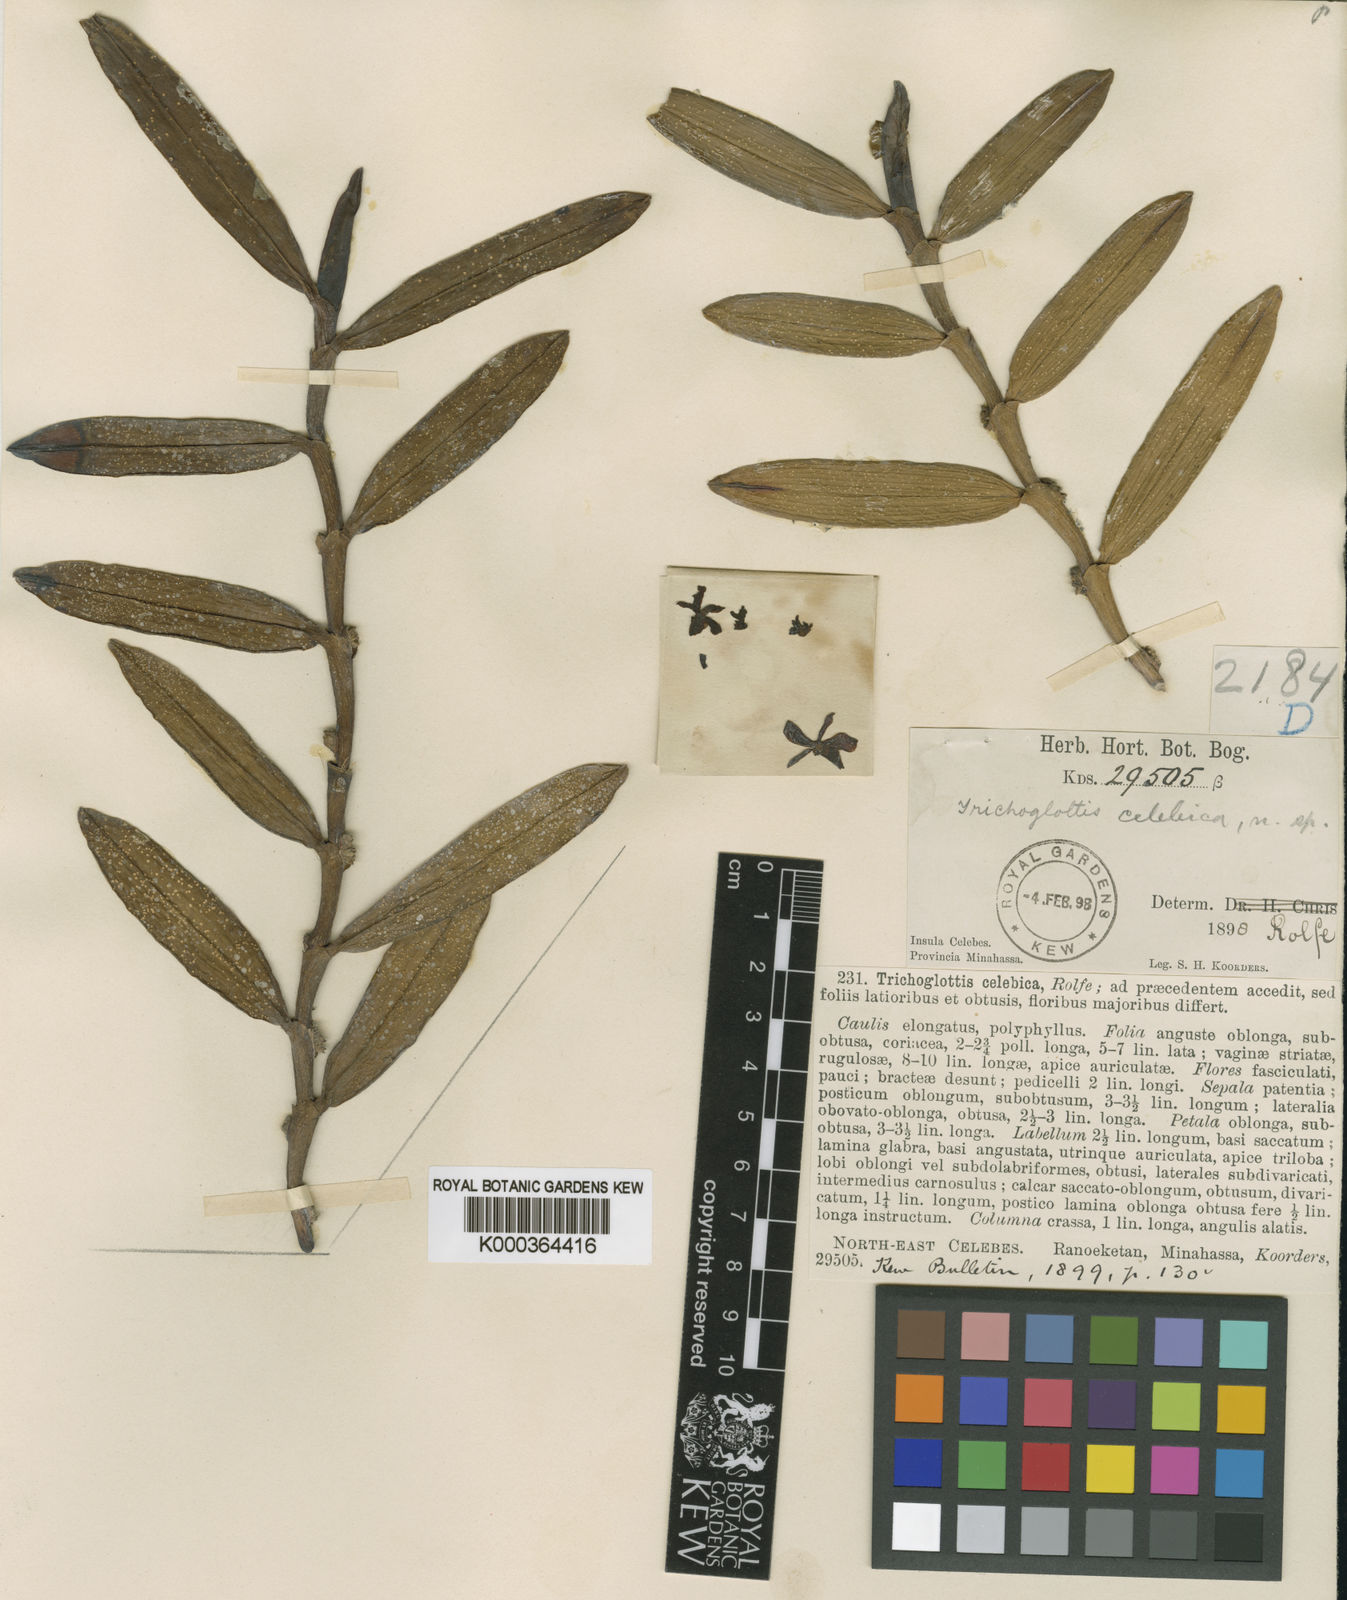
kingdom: Plantae
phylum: Tracheophyta
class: Liliopsida
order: Asparagales
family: Orchidaceae
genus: Trichoglottis
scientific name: Trichoglottis celebica
